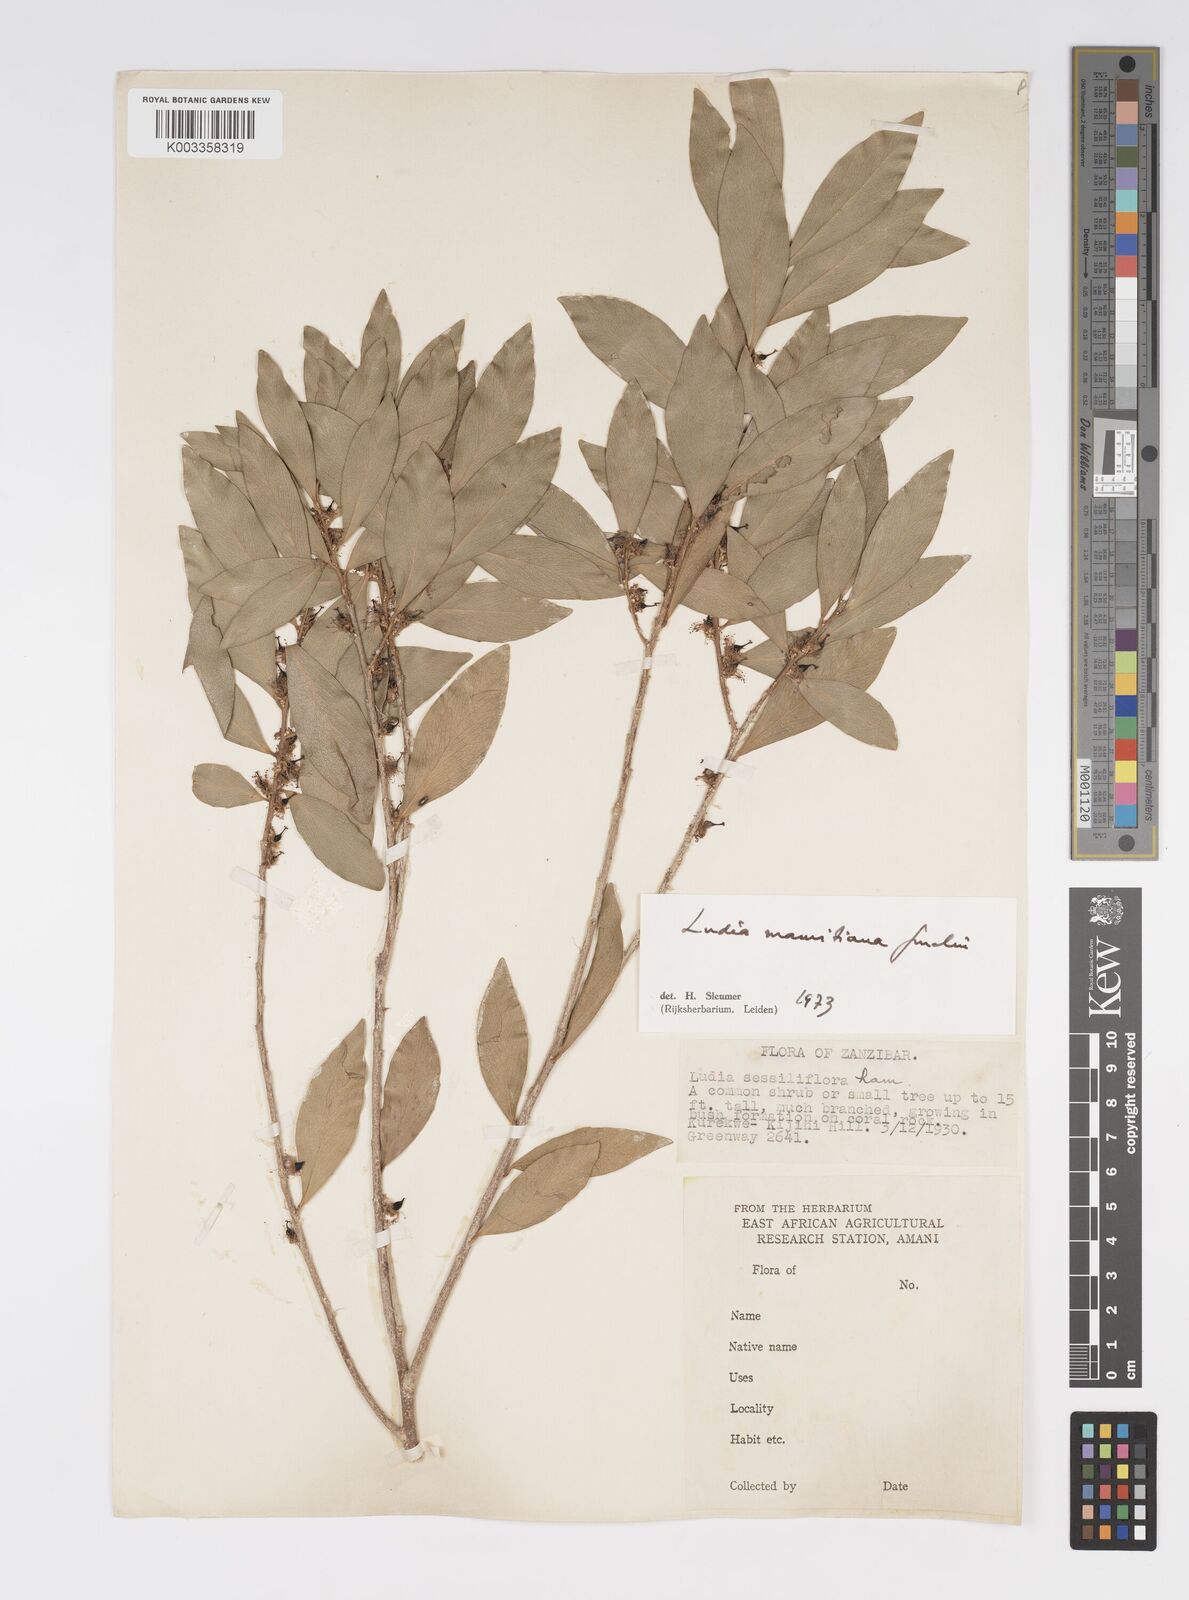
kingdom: Plantae
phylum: Tracheophyta
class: Magnoliopsida
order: Malpighiales
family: Salicaceae
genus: Ludia
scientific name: Ludia mauritiana
